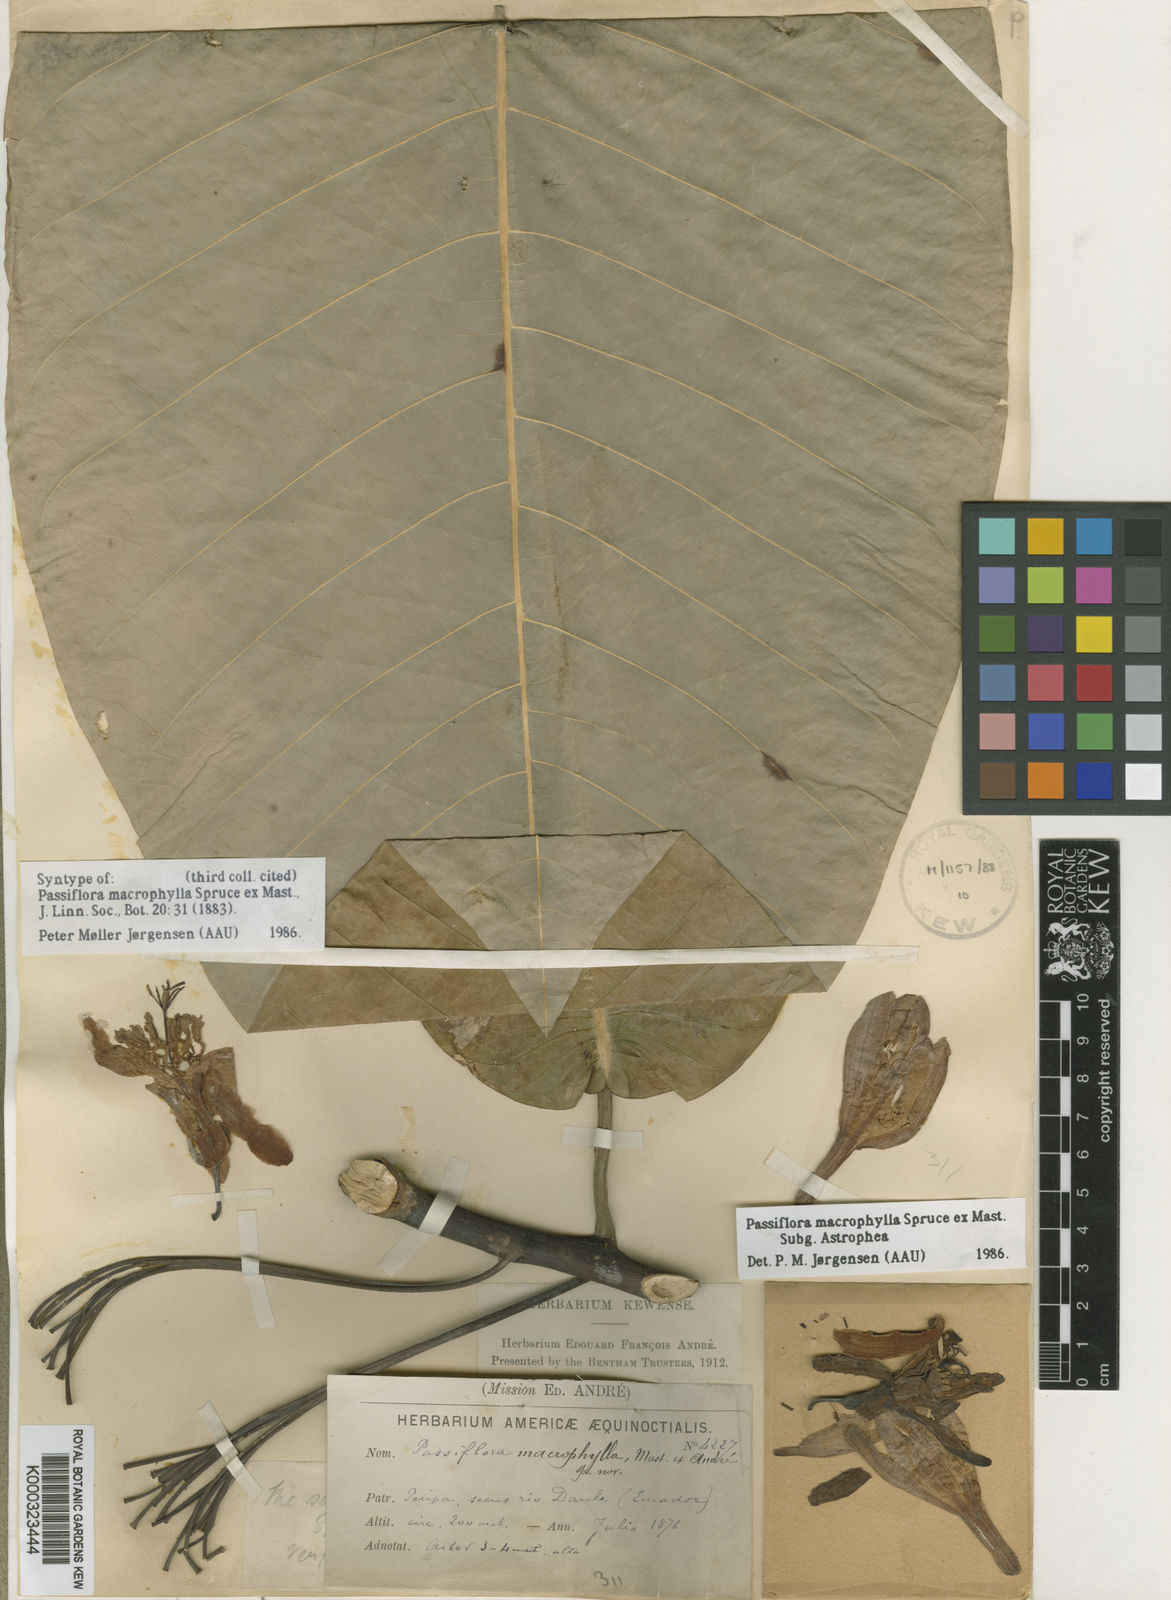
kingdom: Plantae
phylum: Tracheophyta
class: Magnoliopsida
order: Malpighiales
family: Passifloraceae
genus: Passiflora
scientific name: Passiflora macrophylla
